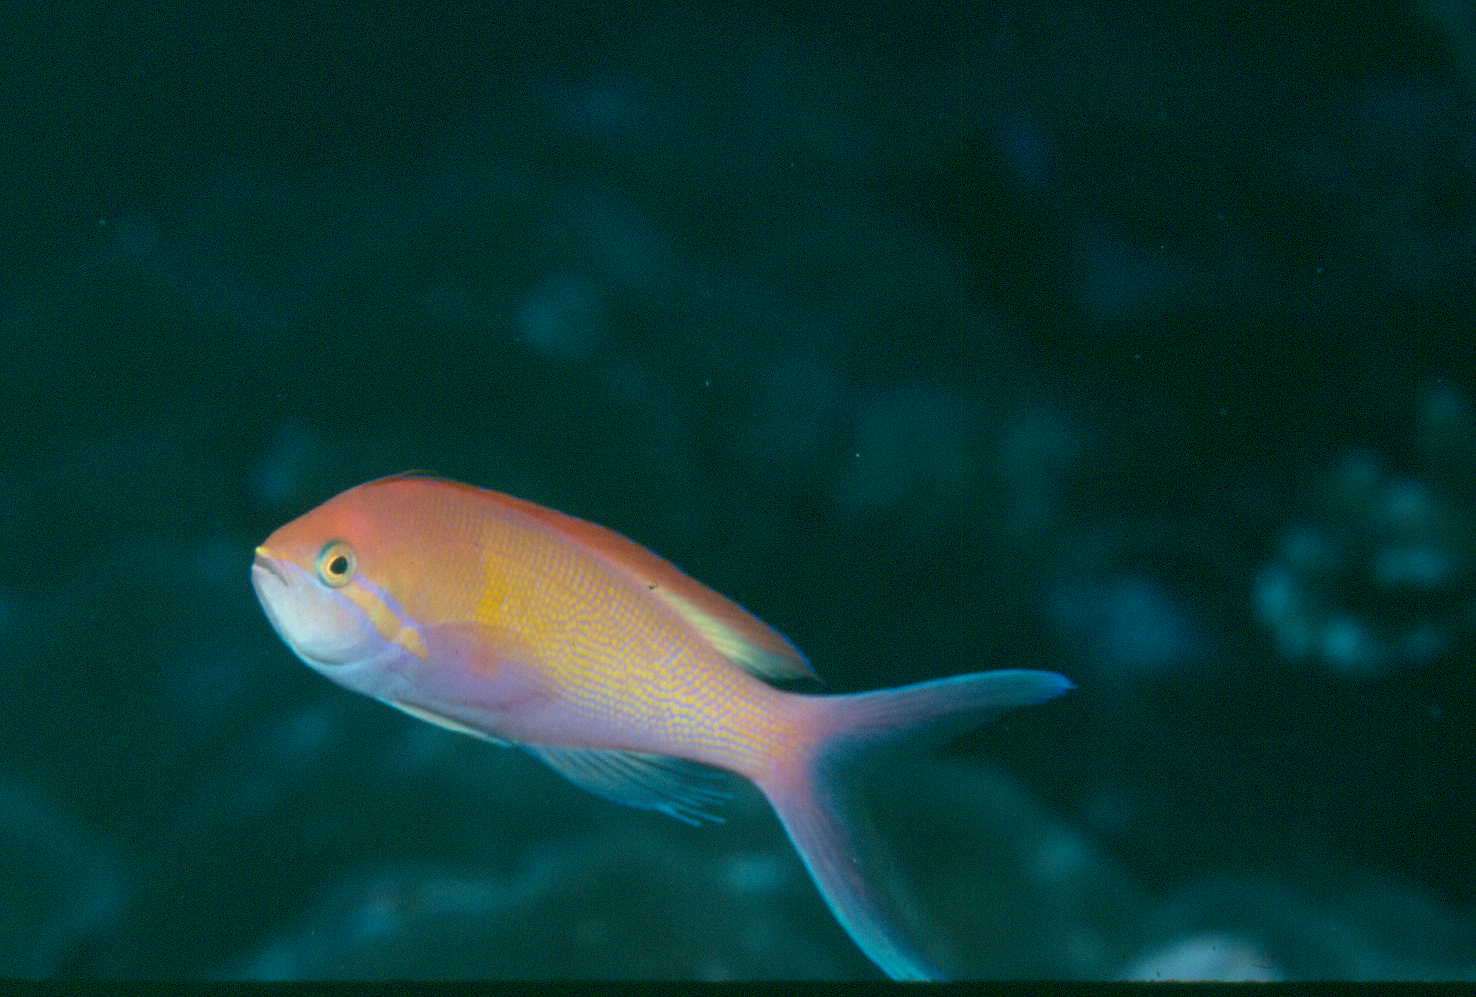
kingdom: Animalia
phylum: Chordata
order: Perciformes
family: Serranidae
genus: Nemanthias
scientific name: Nemanthias carberryi
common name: Threadfin anthias
